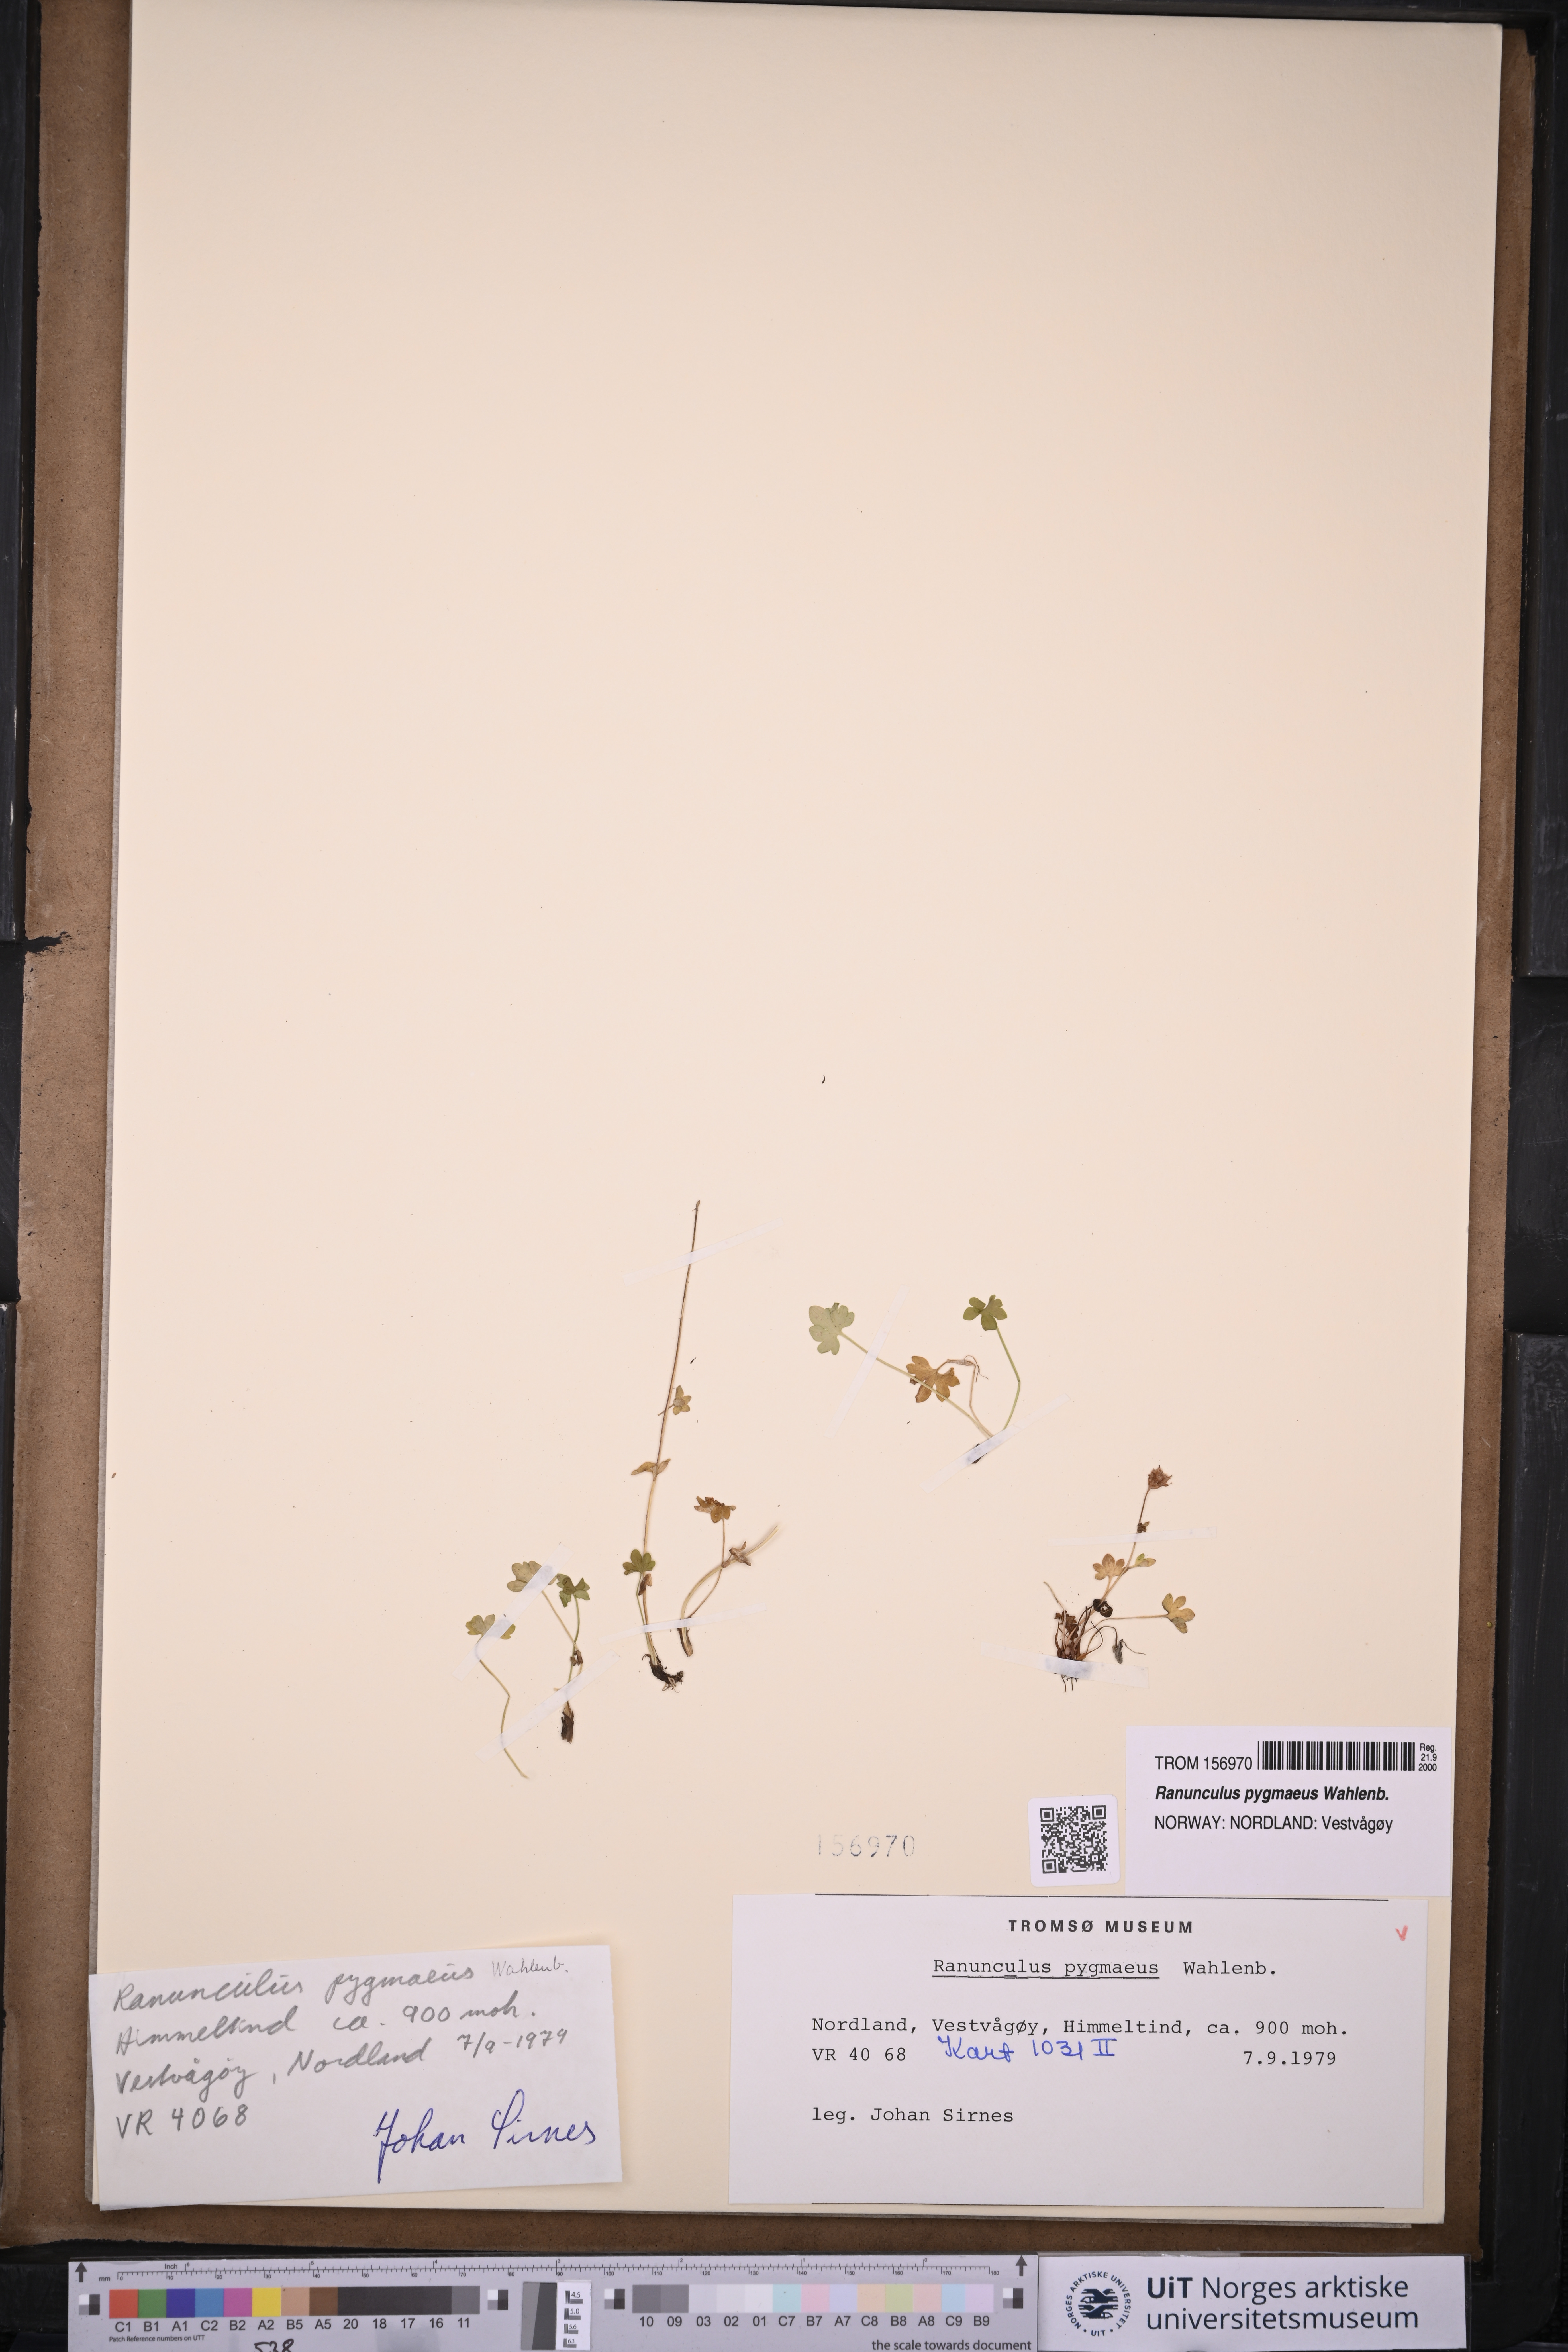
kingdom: Plantae
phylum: Tracheophyta
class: Magnoliopsida
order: Ranunculales
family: Ranunculaceae
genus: Ranunculus
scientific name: Ranunculus pygmaeus
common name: Dwarf buttercup
